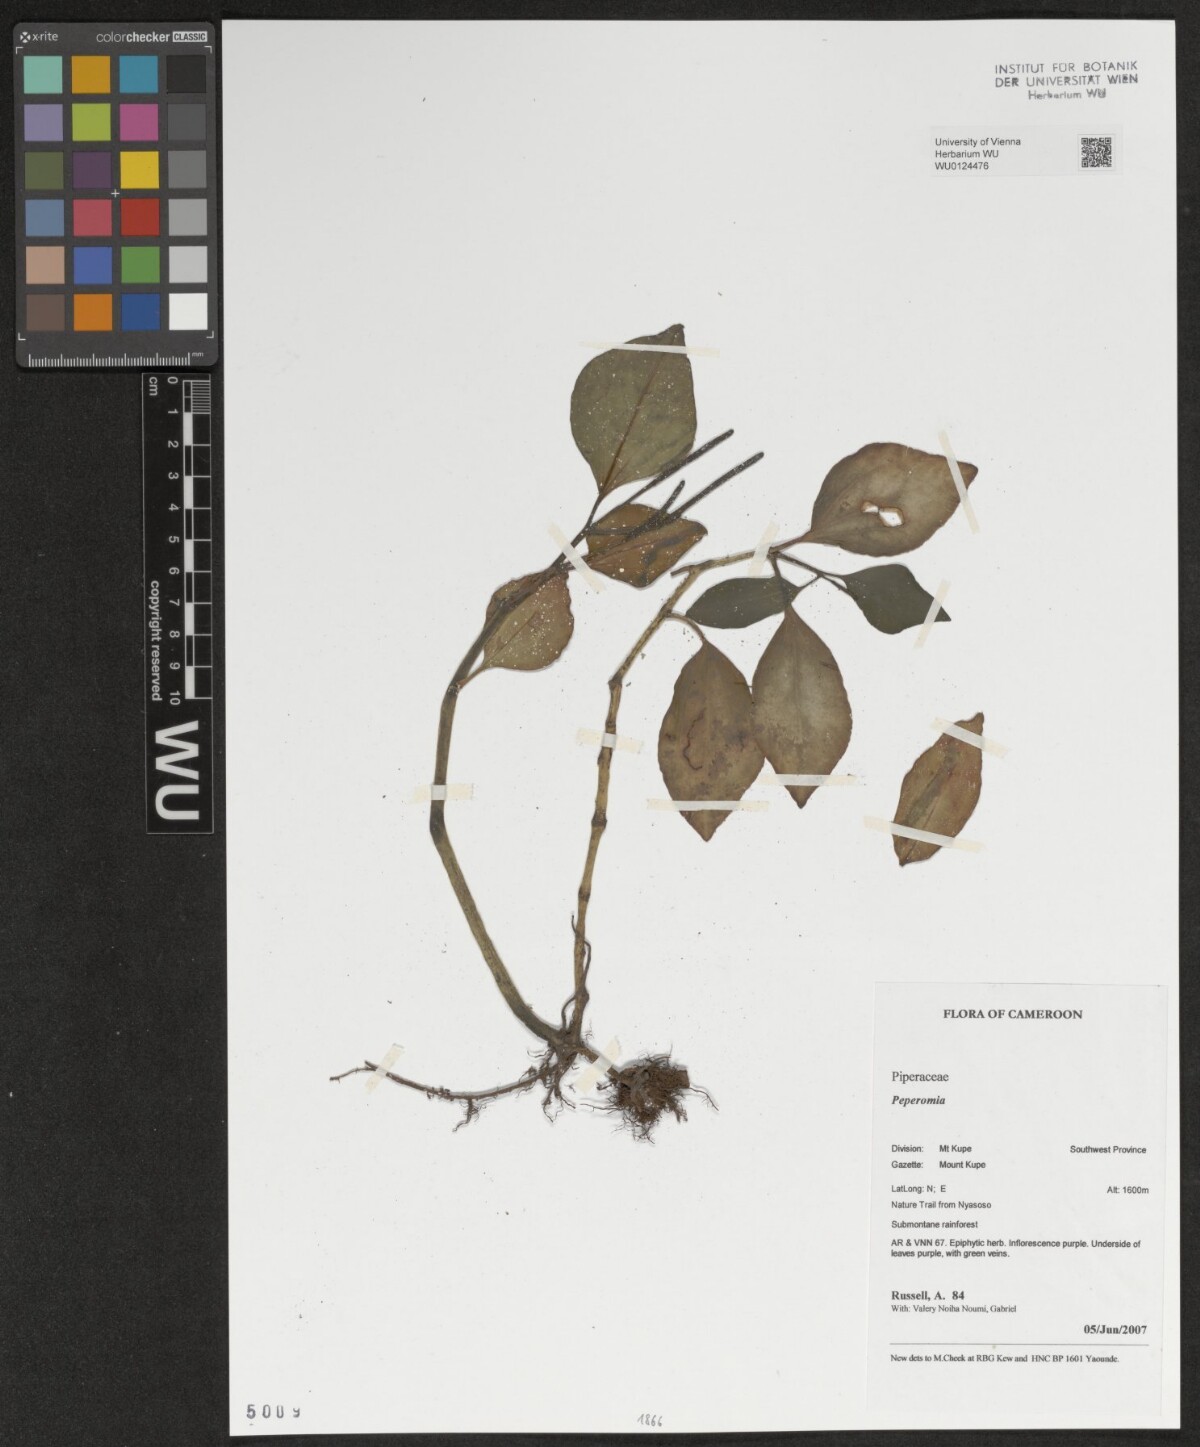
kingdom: Plantae
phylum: Tracheophyta
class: Magnoliopsida
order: Piperales
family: Piperaceae
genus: Peperomia
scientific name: Peperomia
